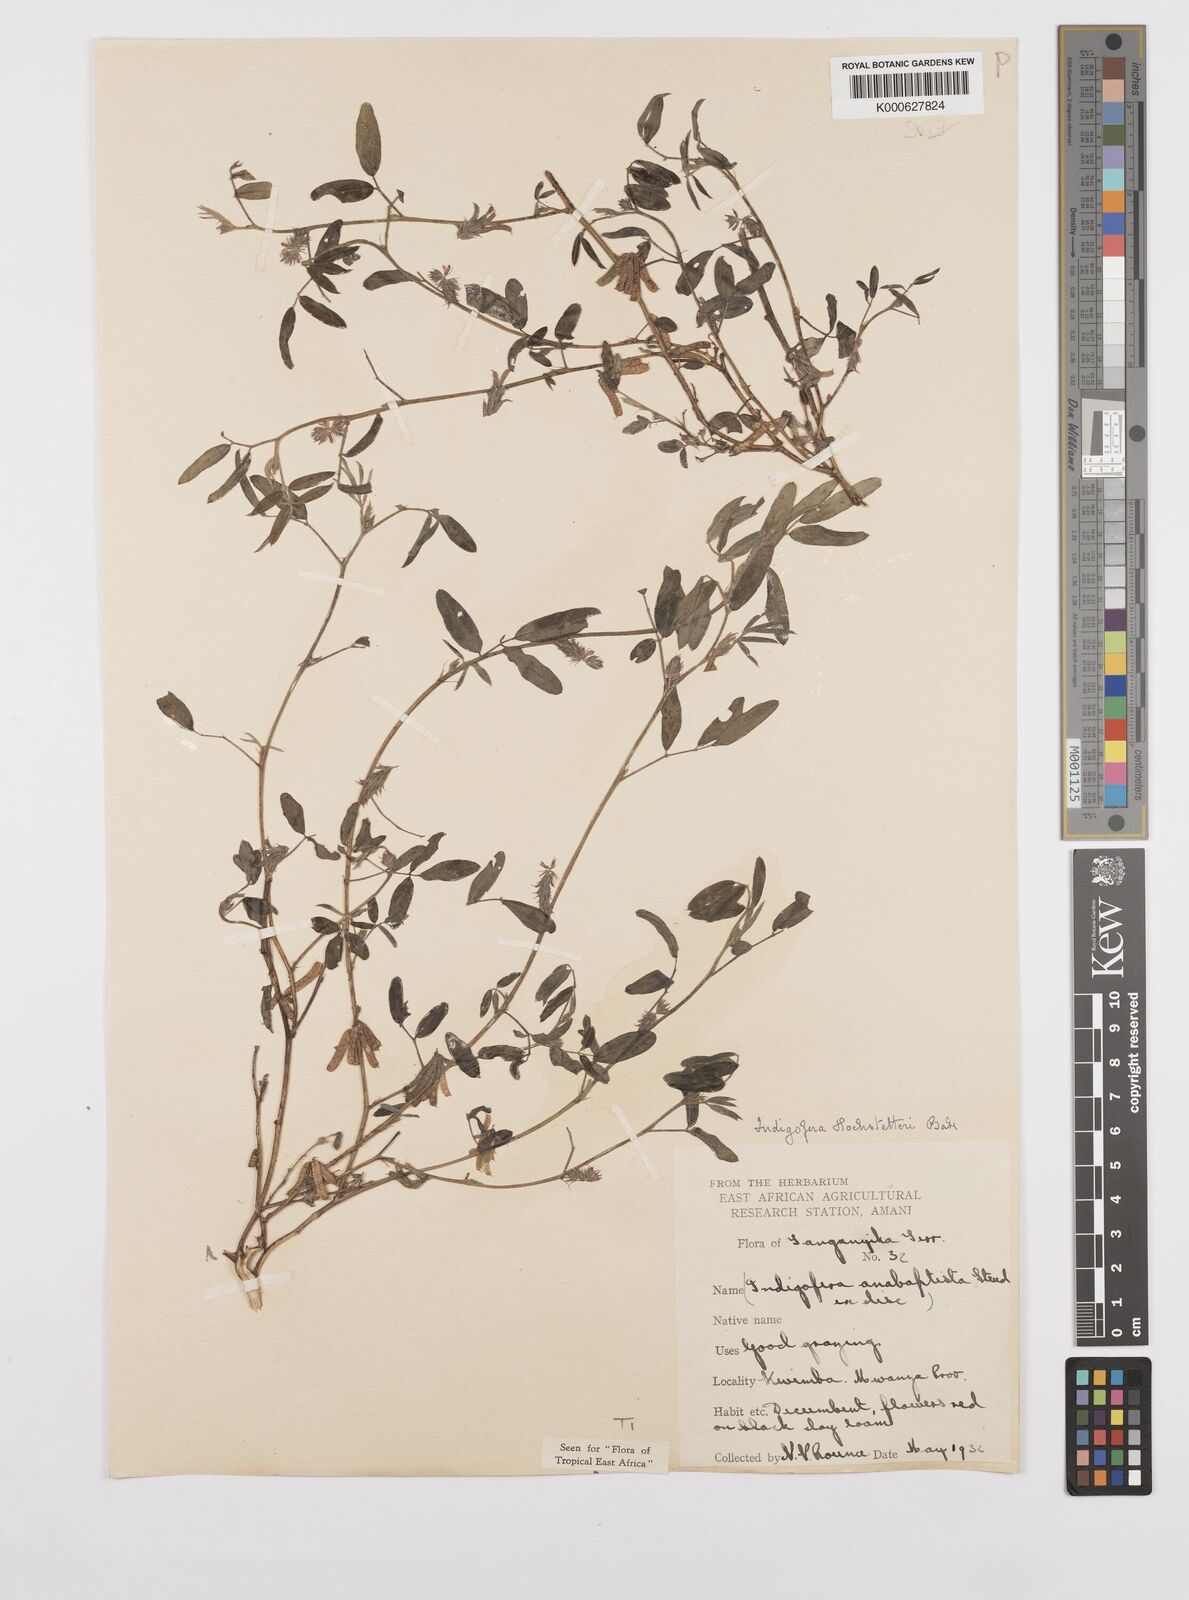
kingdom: Plantae
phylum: Tracheophyta
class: Magnoliopsida
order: Fabales
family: Fabaceae
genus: Indigofera
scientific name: Indigofera hochstetteri
